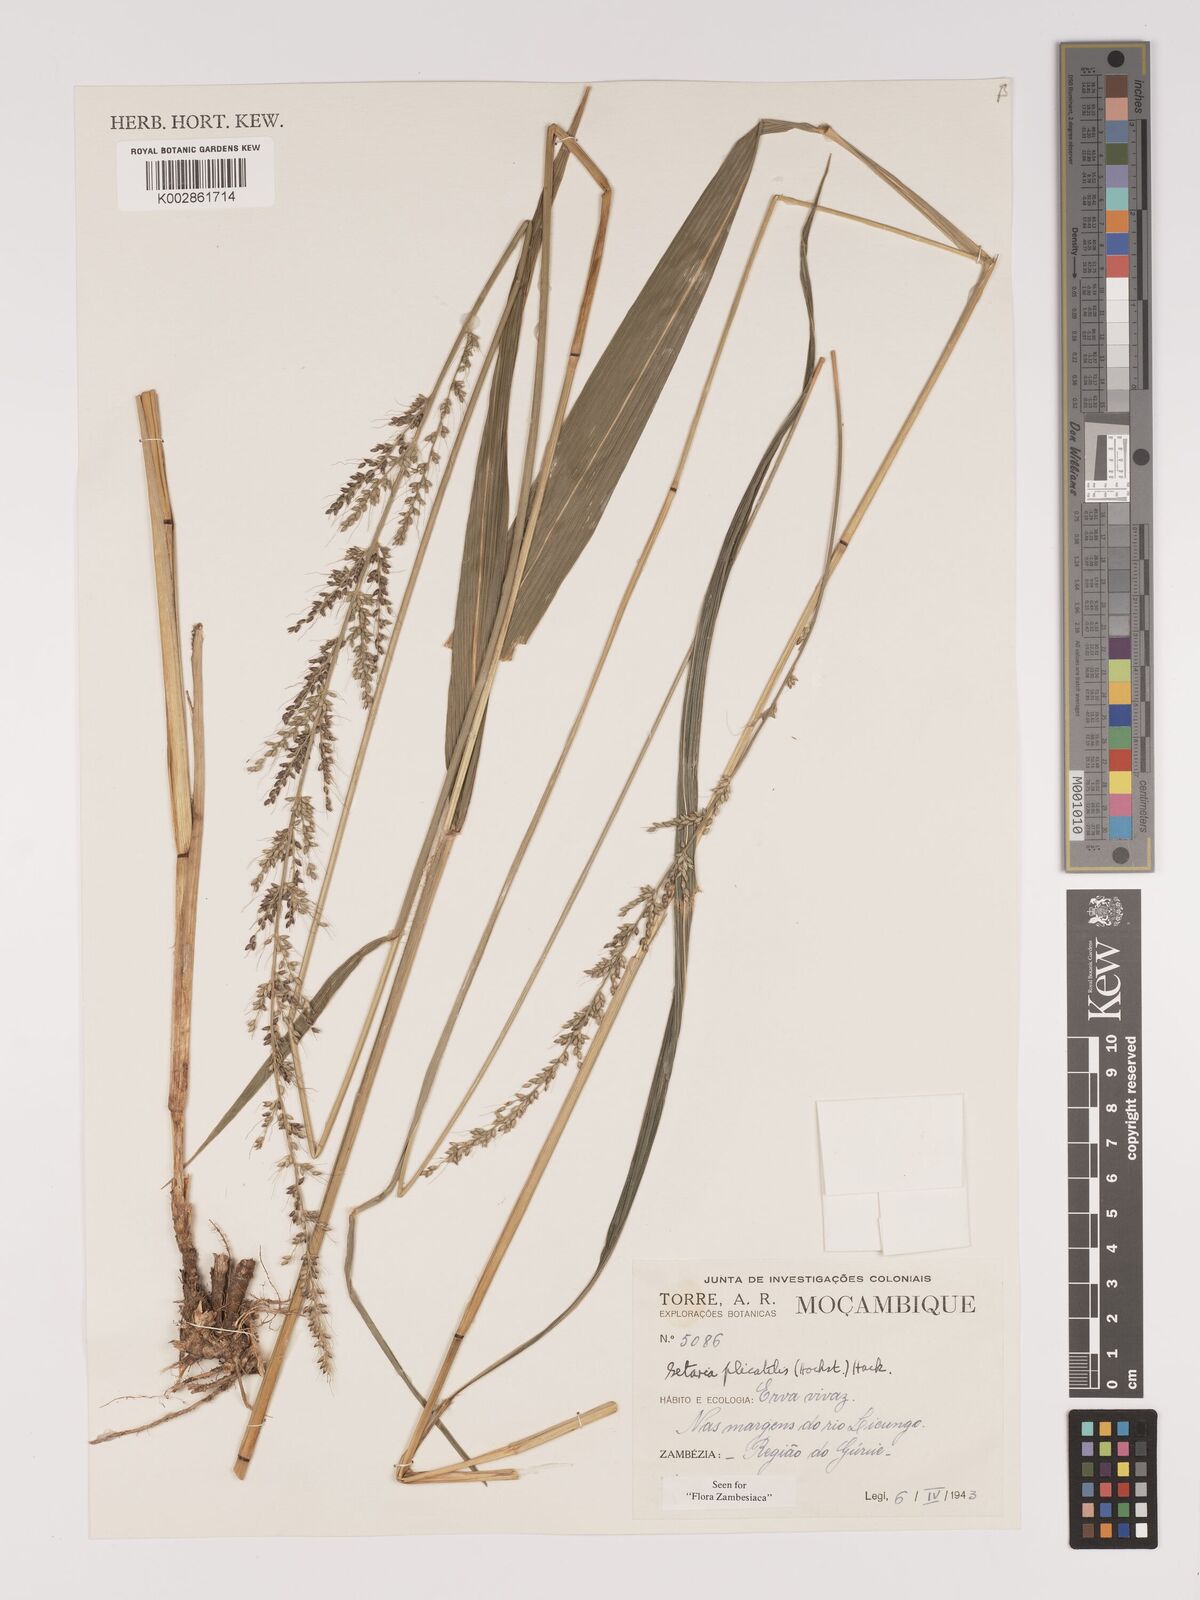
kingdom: Plantae
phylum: Tracheophyta
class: Liliopsida
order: Poales
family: Poaceae
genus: Setaria
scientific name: Setaria megaphylla
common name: Bigleaf bristlegrass
